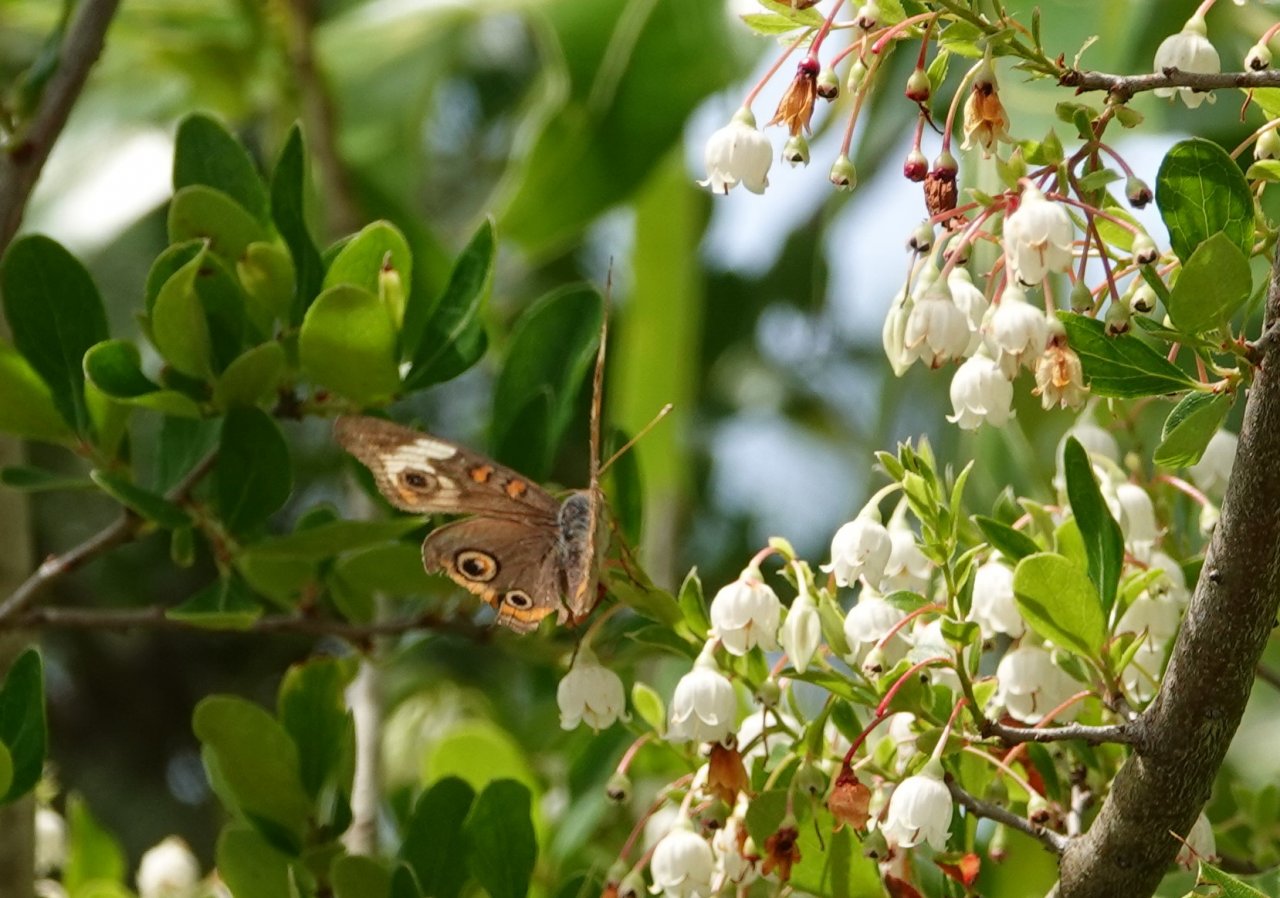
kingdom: Animalia
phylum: Arthropoda
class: Insecta
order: Lepidoptera
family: Nymphalidae
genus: Junonia
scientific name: Junonia coenia
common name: Common Buckeye
